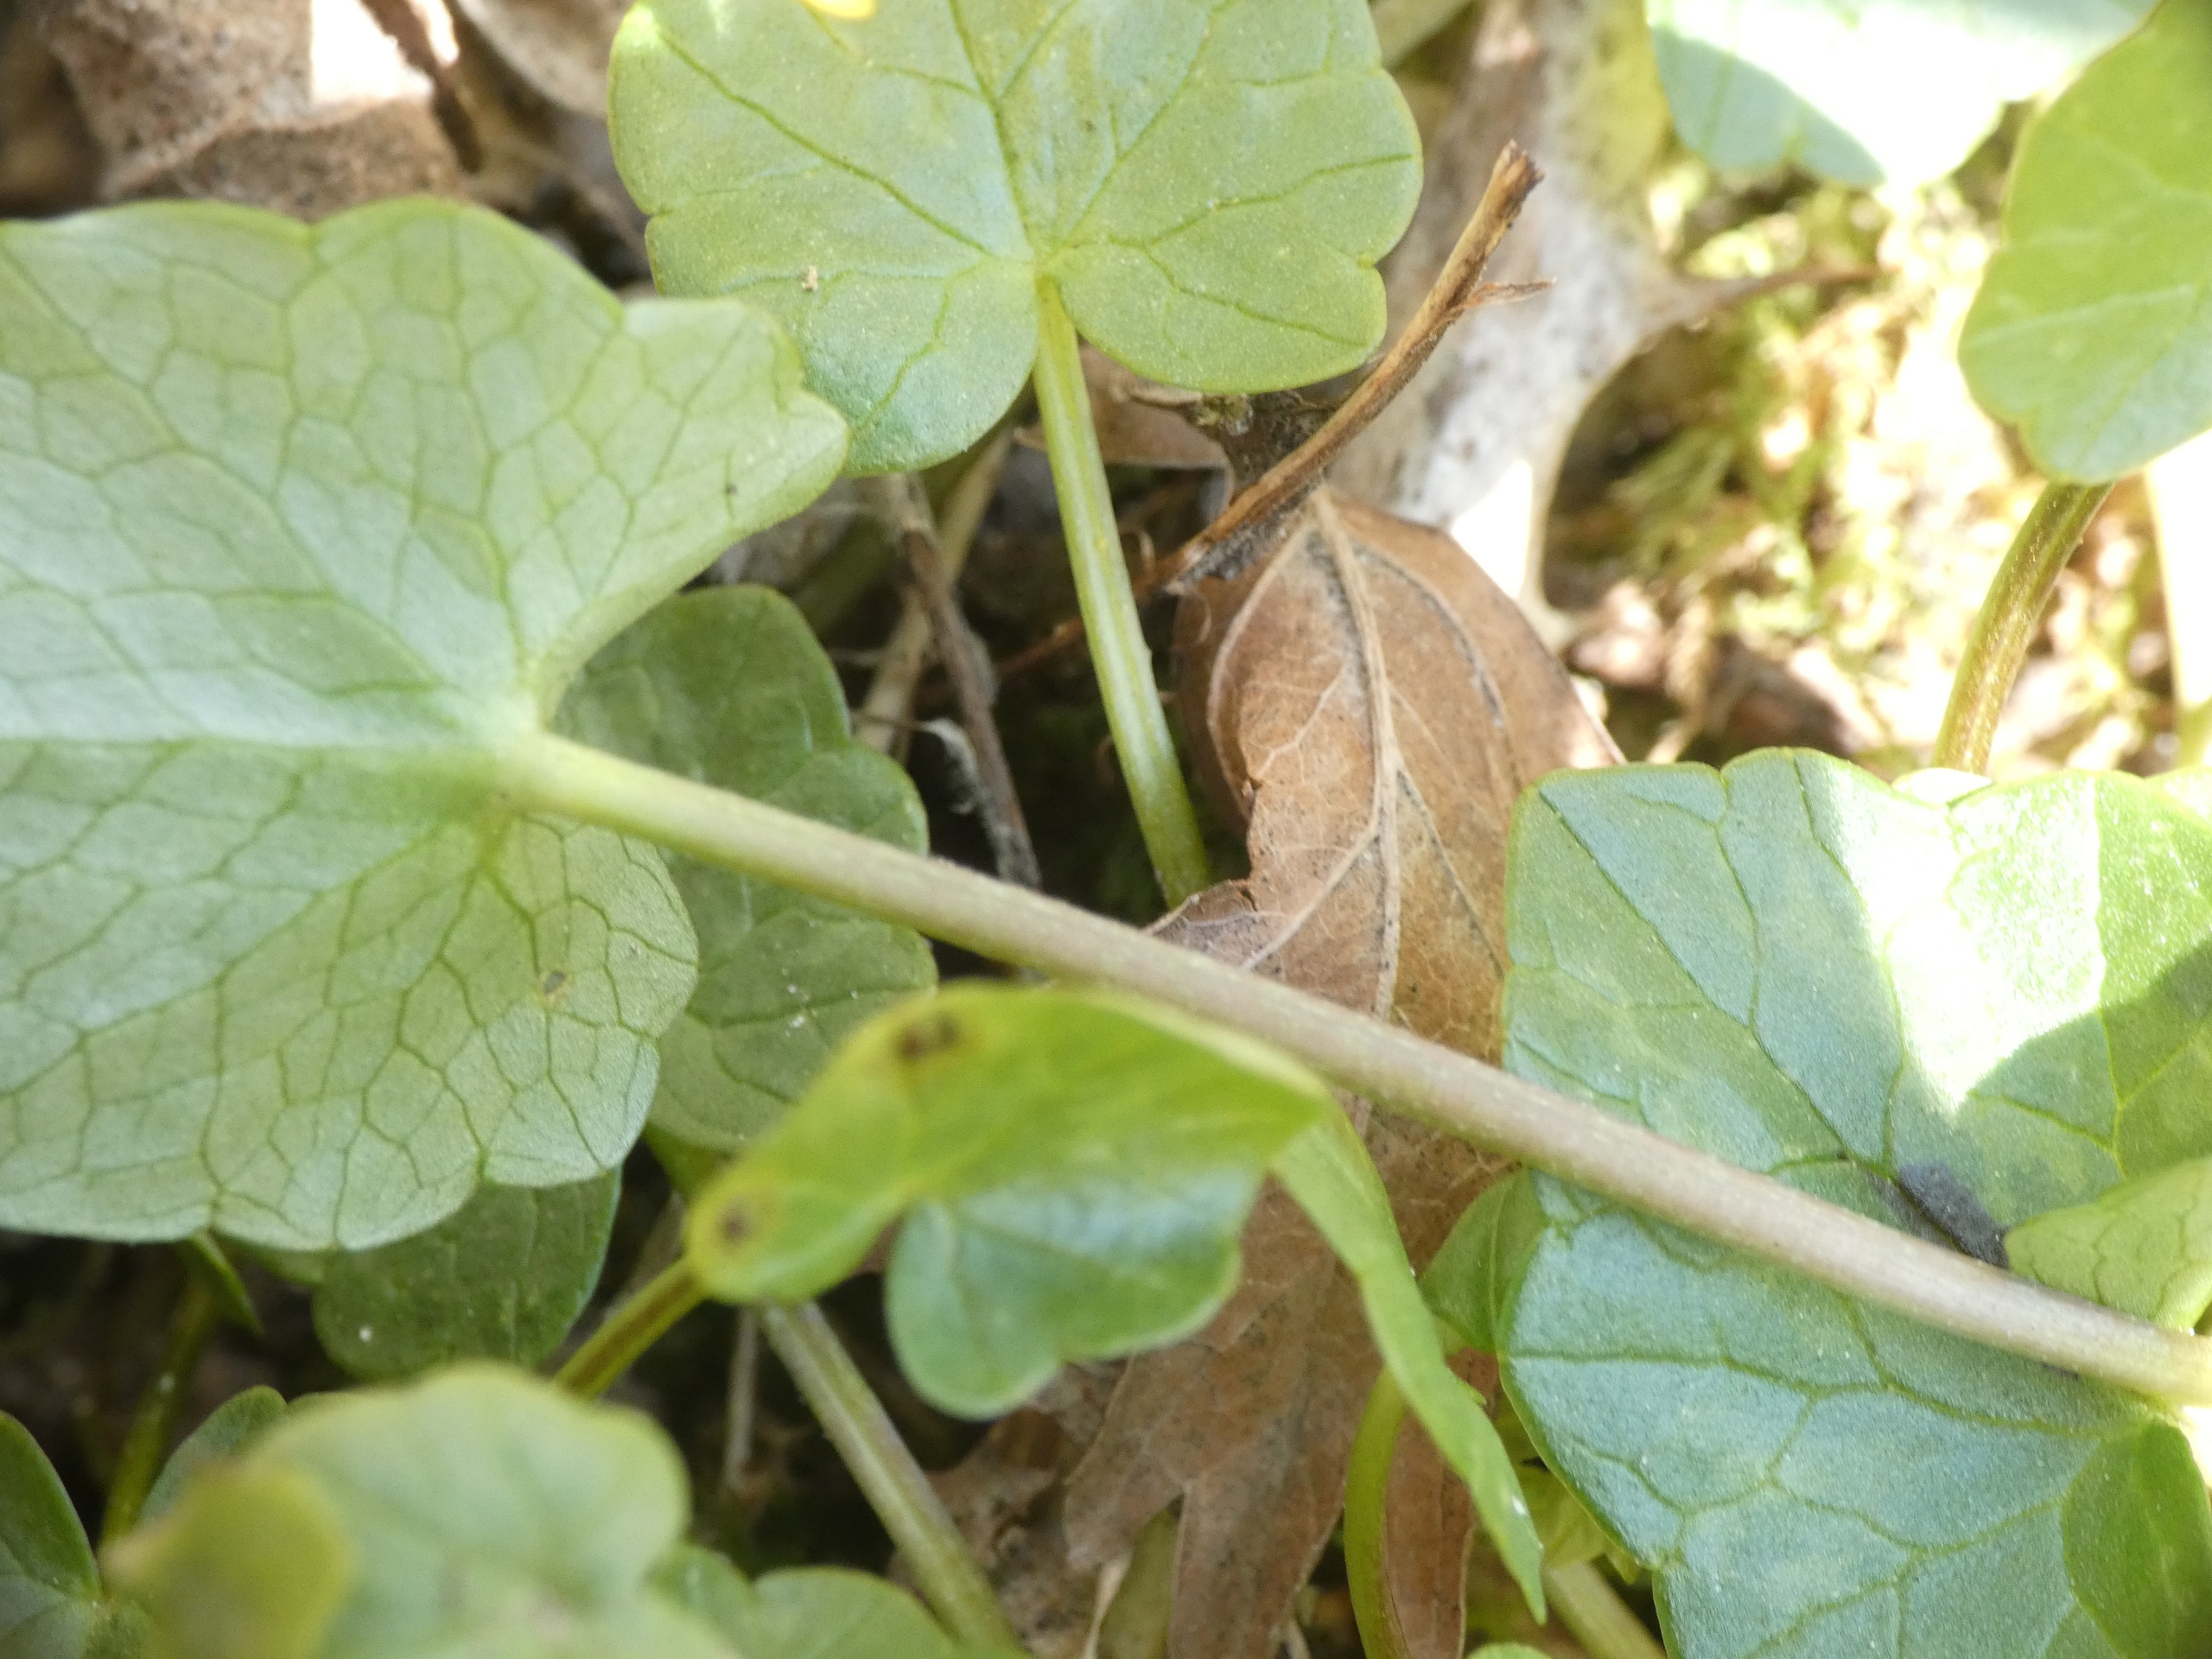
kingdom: Plantae
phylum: Tracheophyta
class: Magnoliopsida
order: Ranunculales
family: Ranunculaceae
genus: Ficaria
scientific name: Ficaria verna
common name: Vorterod
